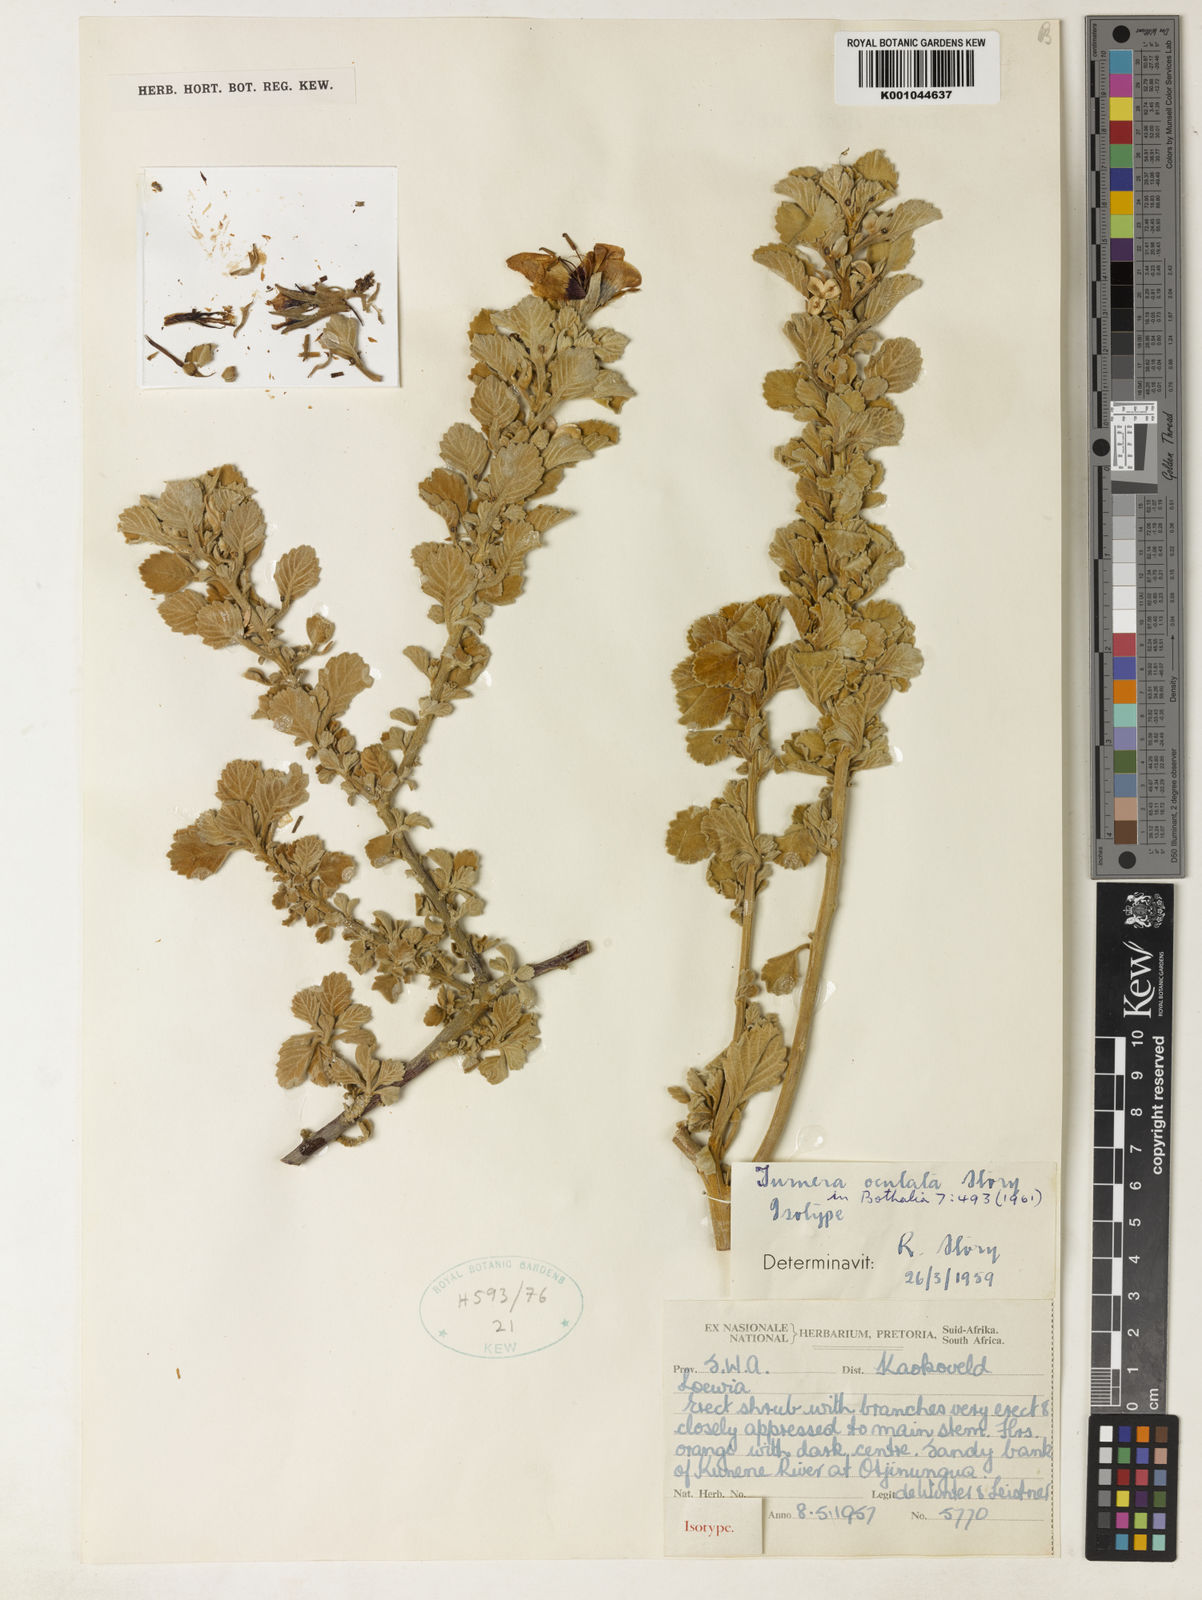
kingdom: Plantae
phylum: Tracheophyta
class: Magnoliopsida
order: Malpighiales
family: Turneraceae
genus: Turnera
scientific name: Turnera oculata
